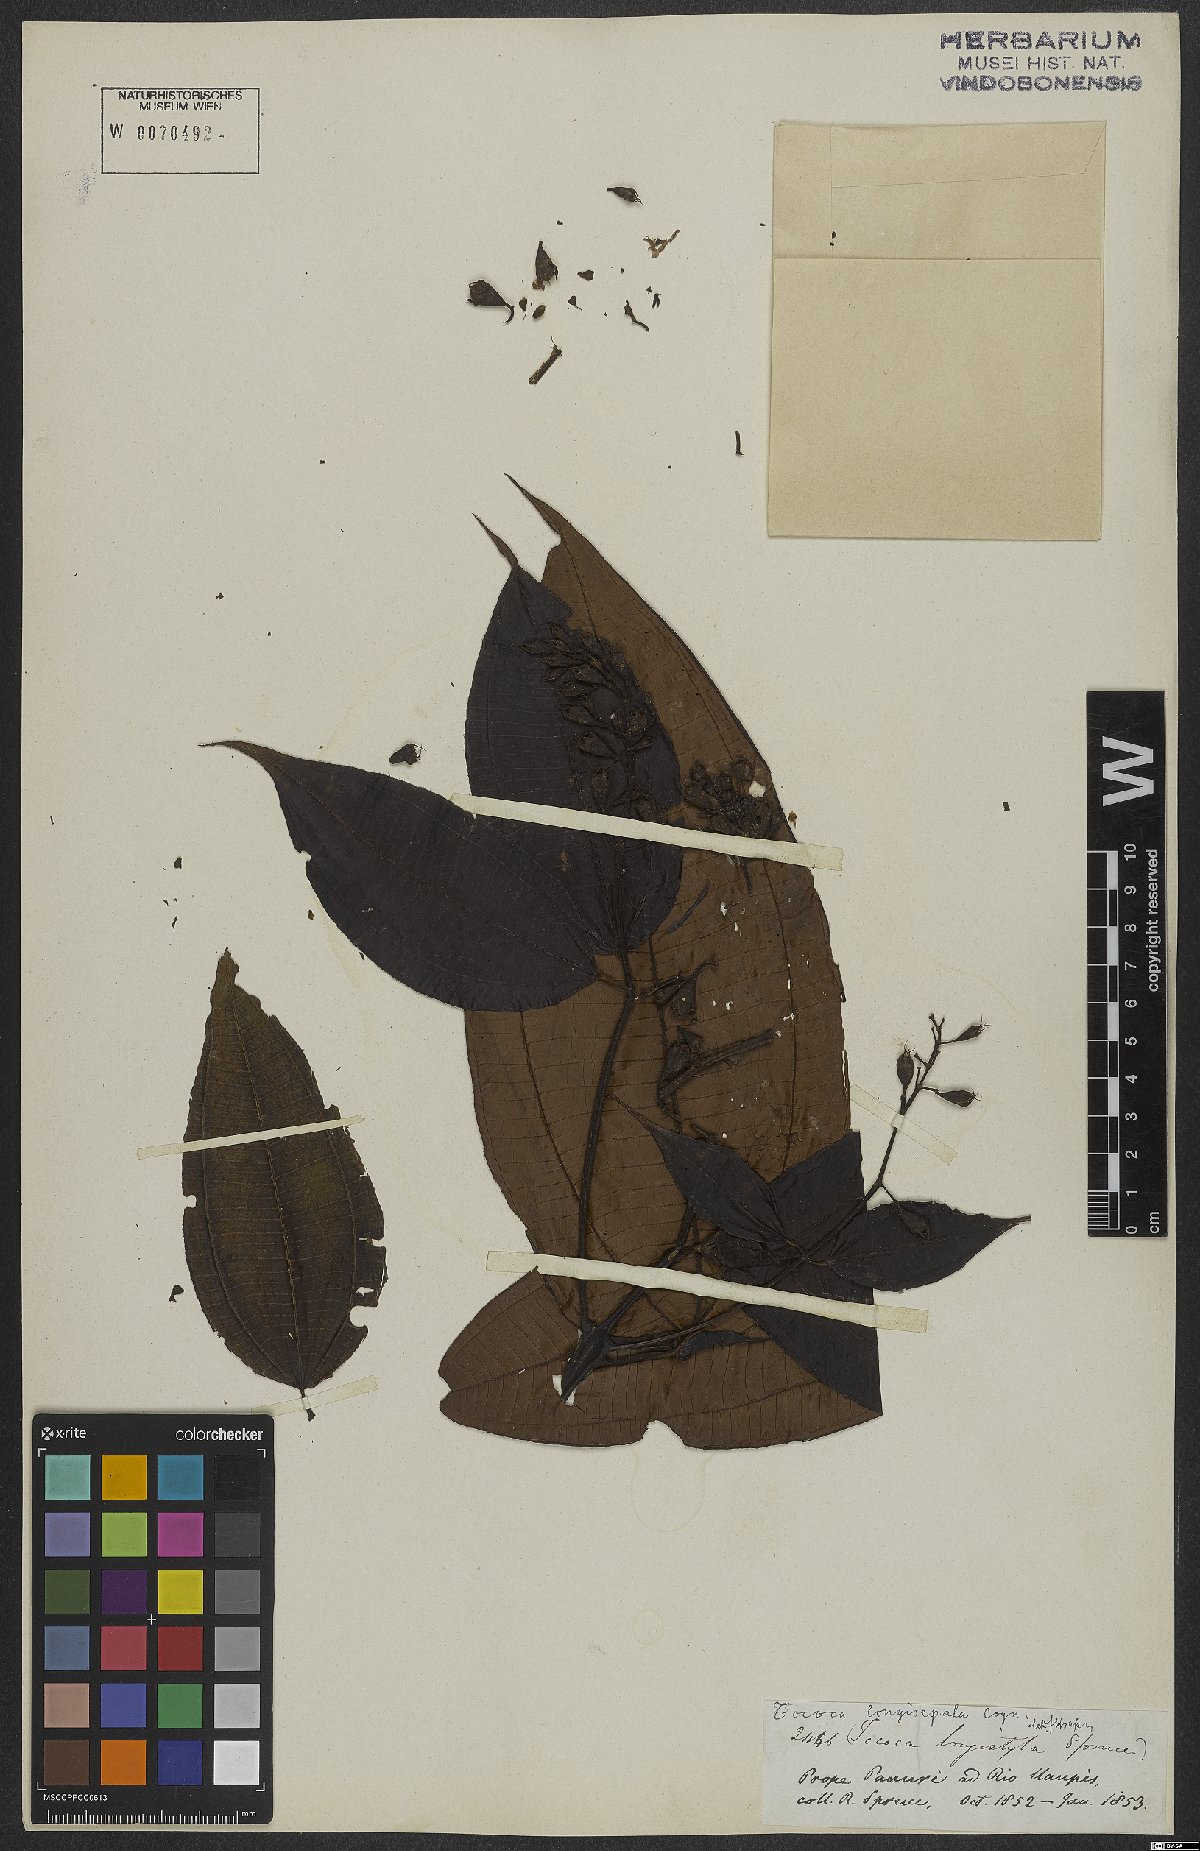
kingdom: Plantae
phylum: Tracheophyta
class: Magnoliopsida
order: Myrtales
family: Melastomataceae
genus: Miconia
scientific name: Miconia tococoronata
